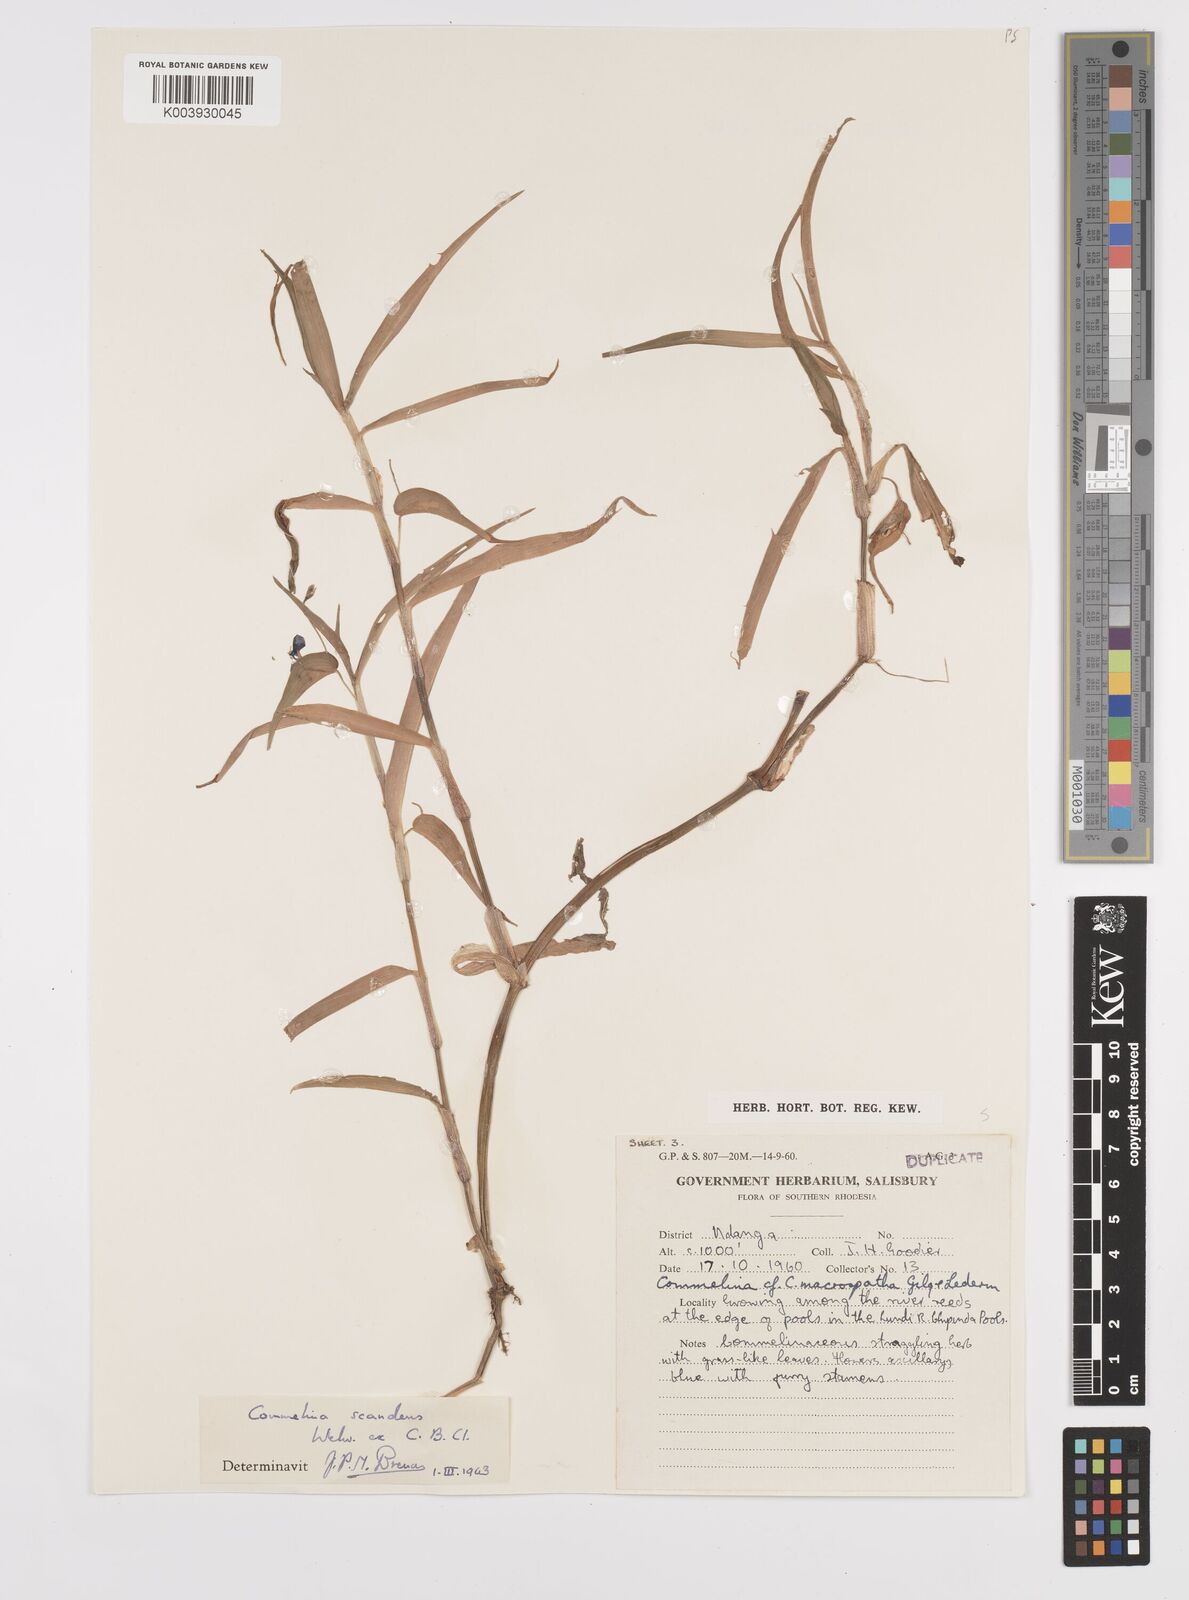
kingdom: Plantae
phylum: Tracheophyta
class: Liliopsida
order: Commelinales
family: Commelinaceae
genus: Commelina
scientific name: Commelina diffusa
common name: Climbing dayflower
